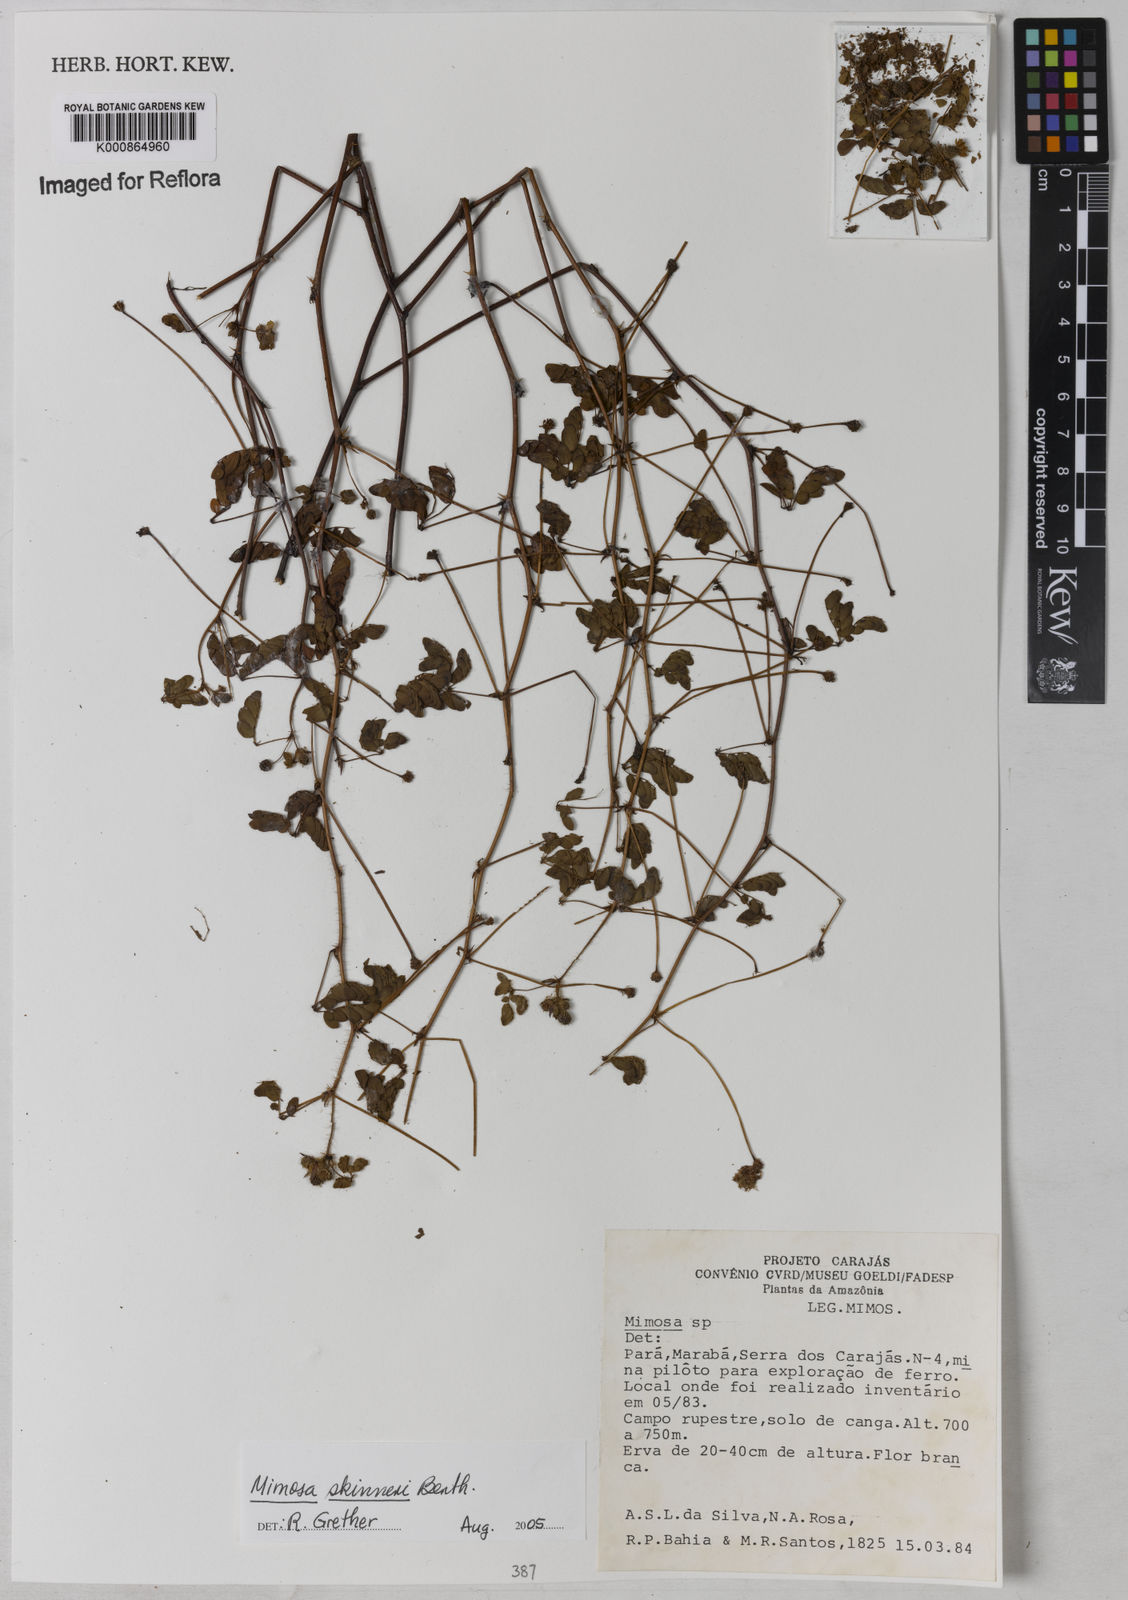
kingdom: Plantae
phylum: Tracheophyta
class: Magnoliopsida
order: Fabales
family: Fabaceae
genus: Mimosa
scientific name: Mimosa skinneri
